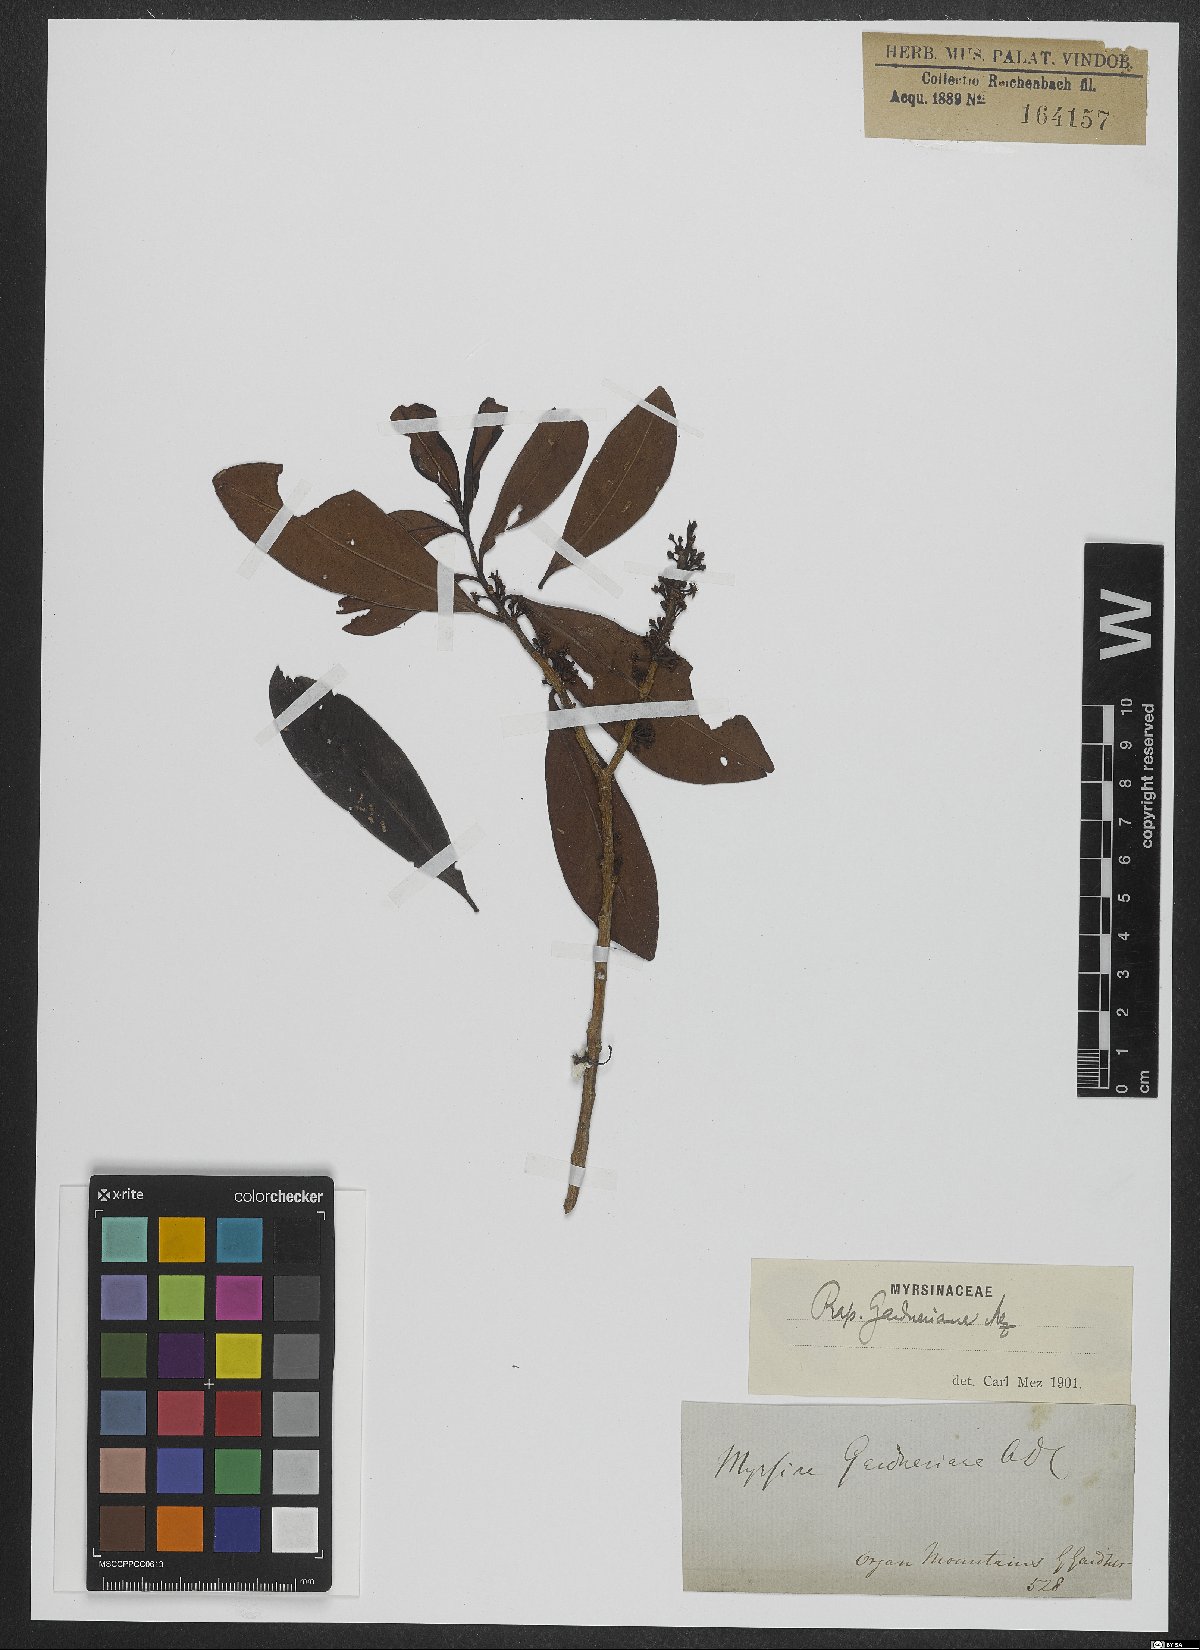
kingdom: Plantae
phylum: Tracheophyta
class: Magnoliopsida
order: Ericales
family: Primulaceae
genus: Myrsine
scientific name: Myrsine gardneriana
